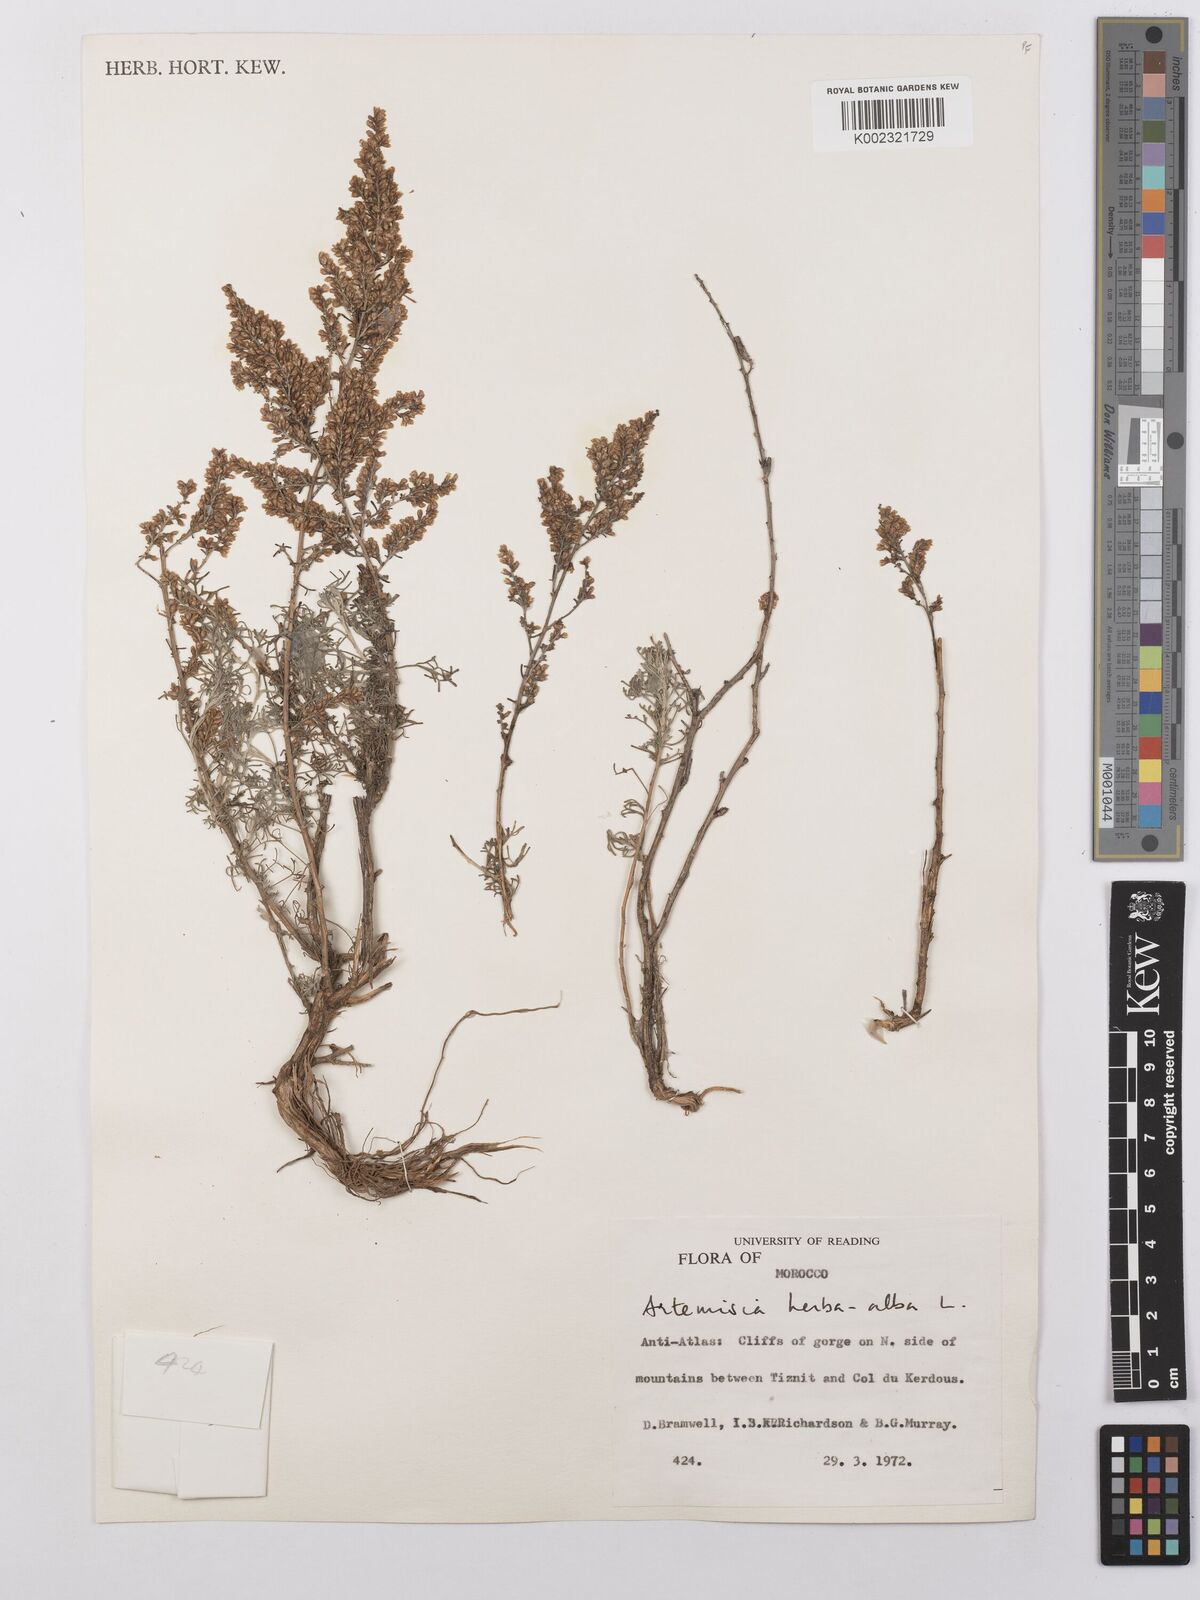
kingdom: Plantae
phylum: Tracheophyta
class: Magnoliopsida
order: Asterales
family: Asteraceae
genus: Artemisia
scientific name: Artemisia herba-alba
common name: White wormwood
